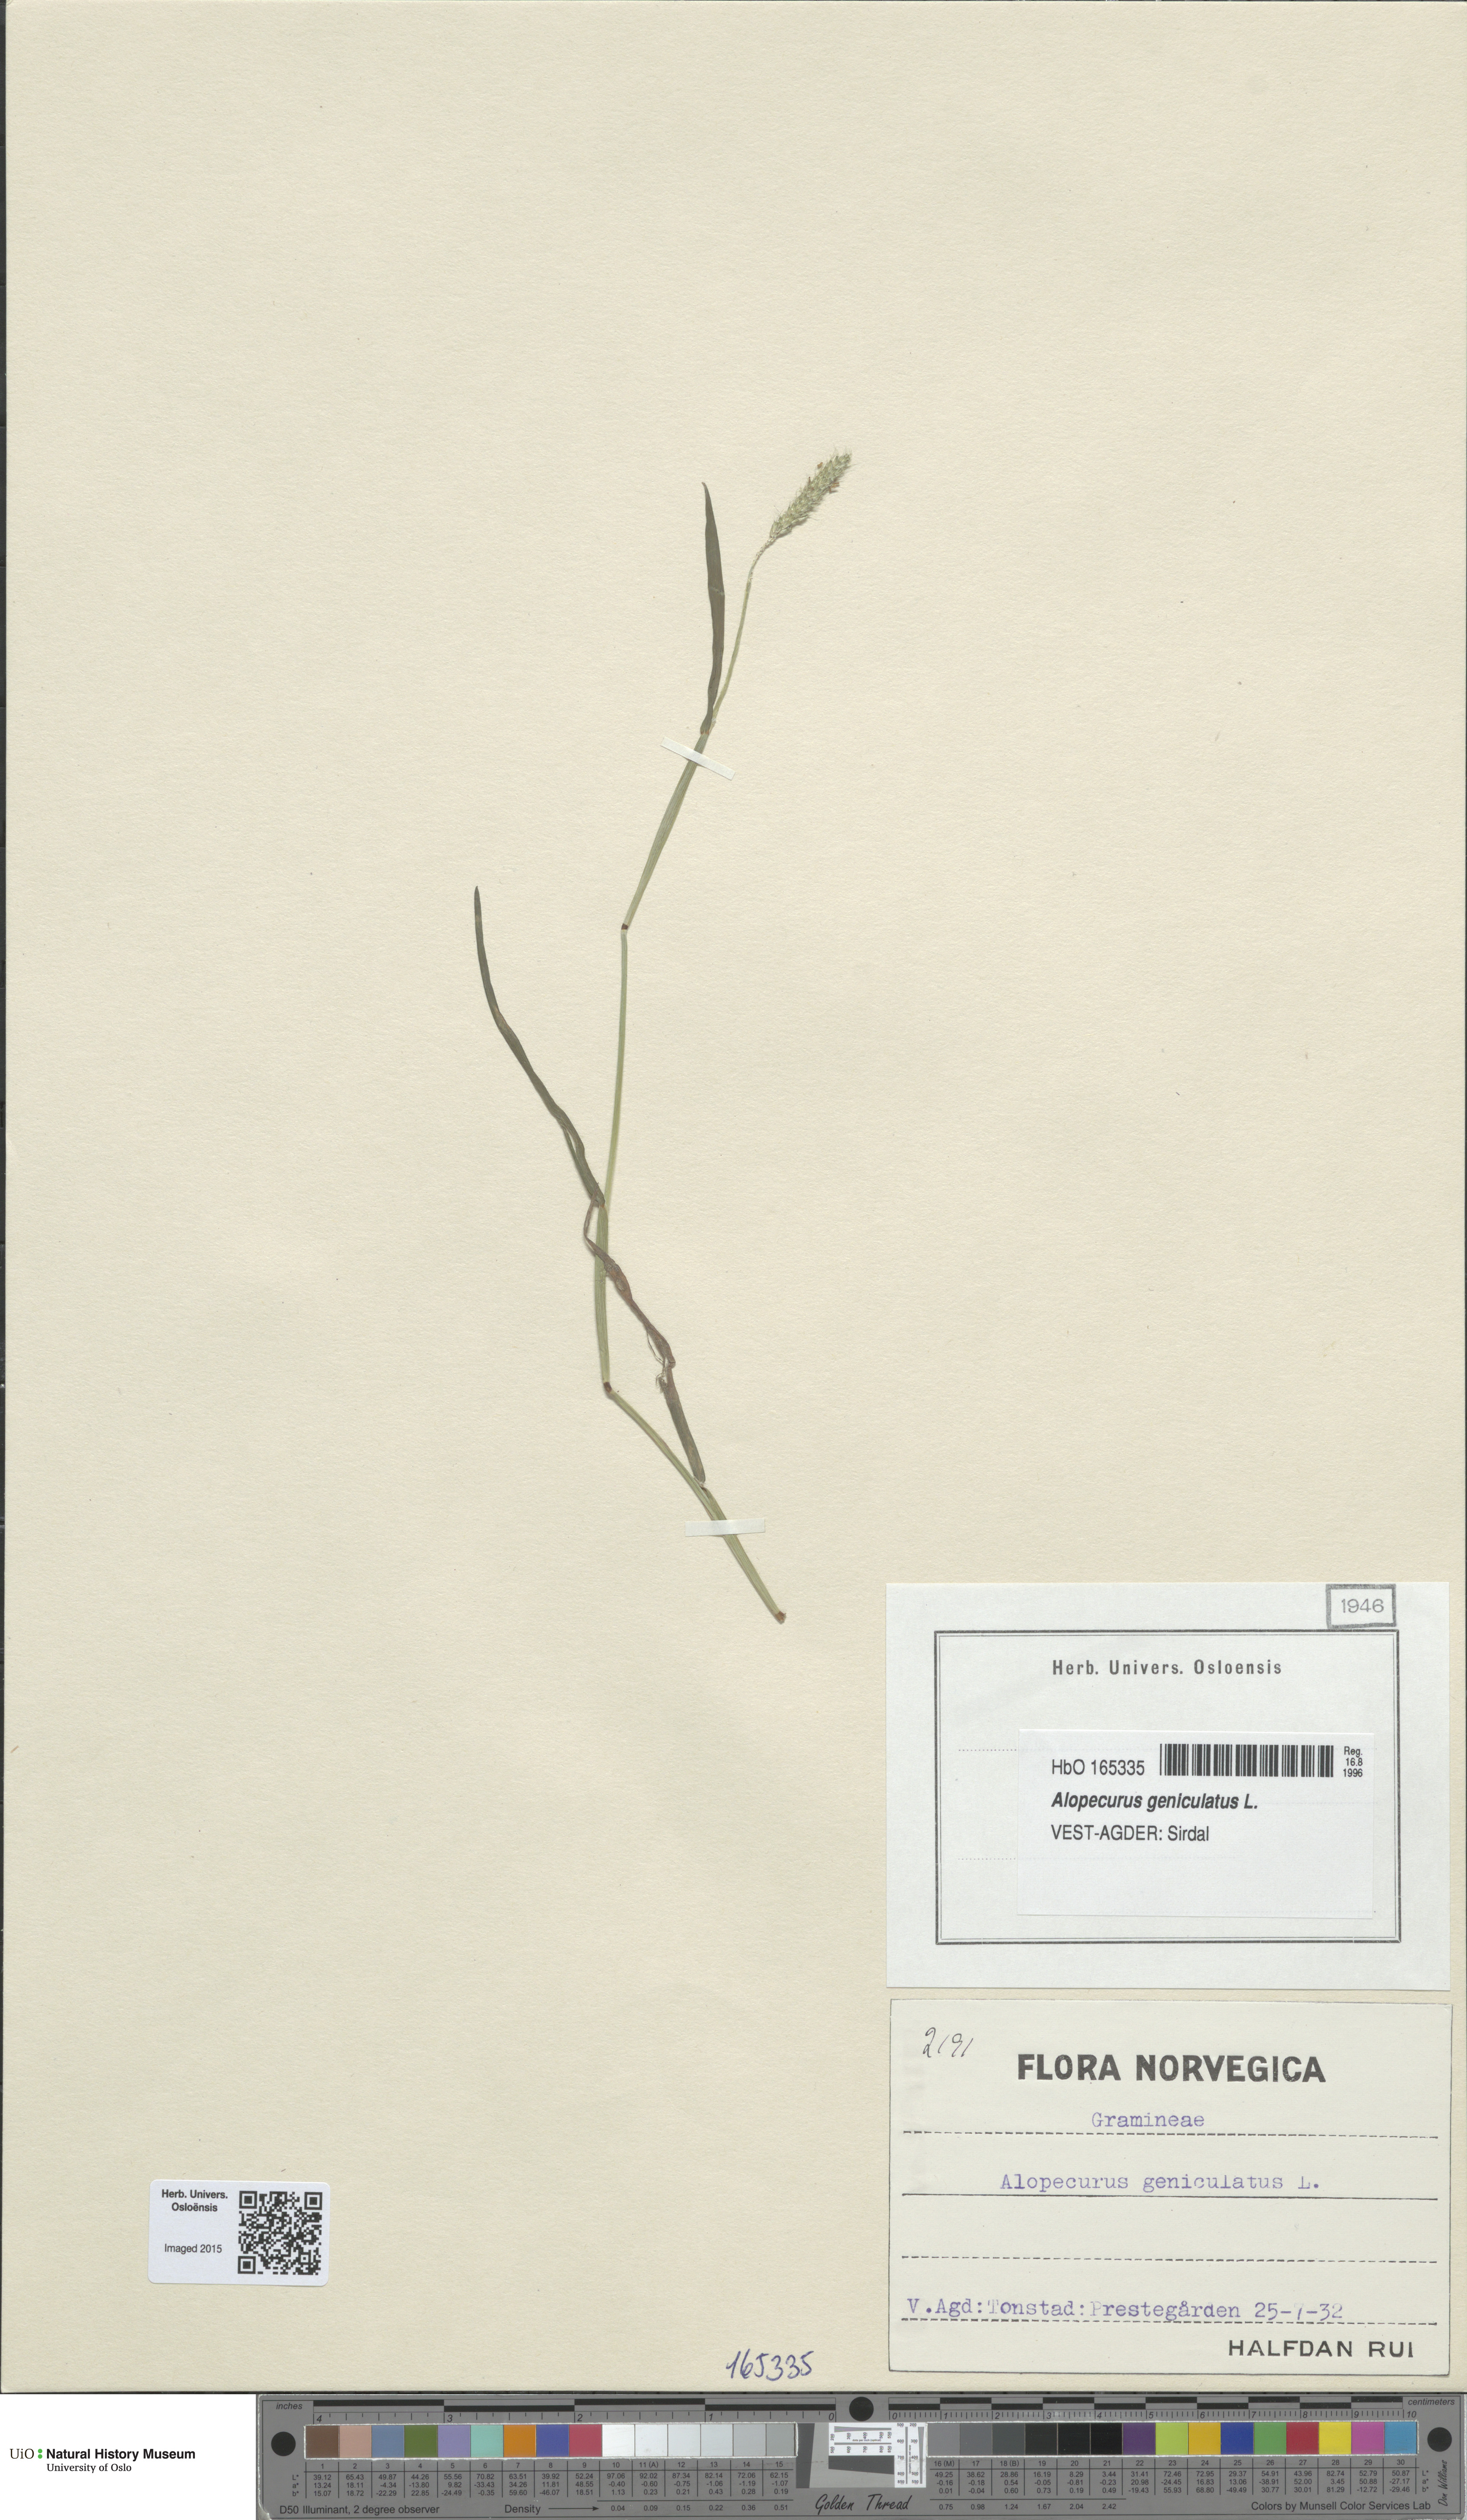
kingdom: Plantae
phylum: Tracheophyta
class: Liliopsida
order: Poales
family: Poaceae
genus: Alopecurus
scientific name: Alopecurus geniculatus
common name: Water foxtail
